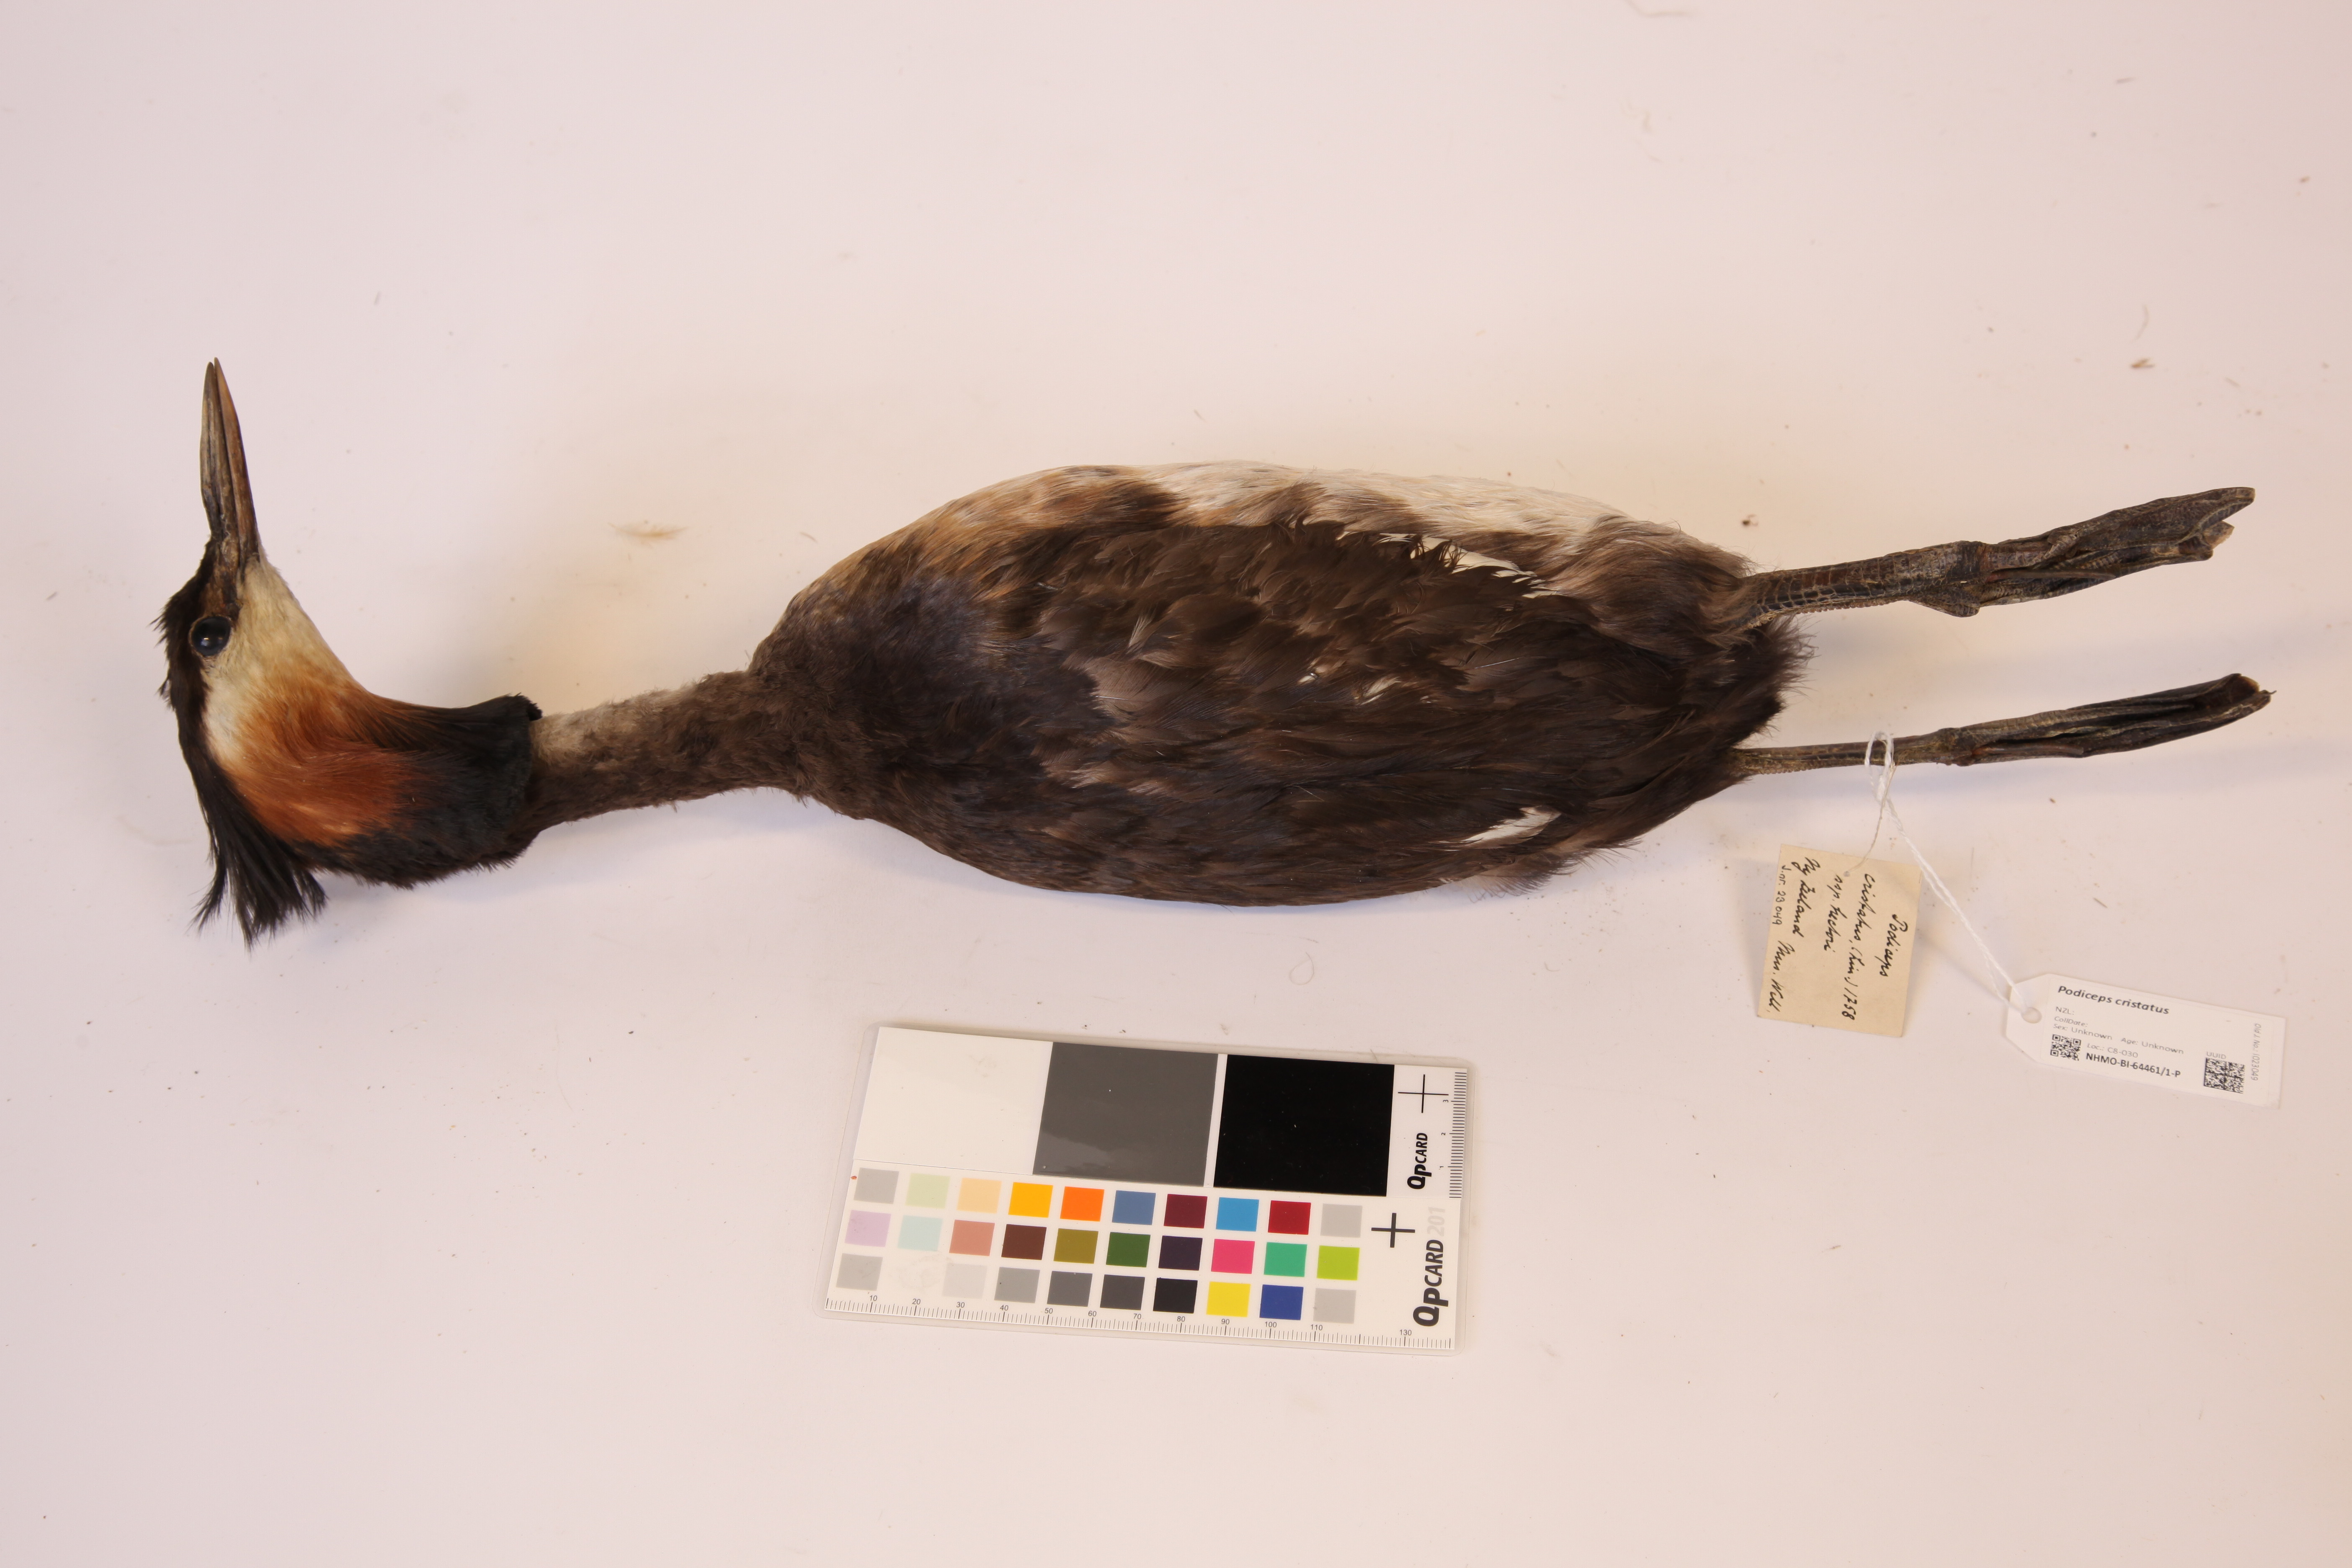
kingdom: Animalia
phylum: Chordata
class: Aves
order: Podicipediformes
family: Podicipedidae
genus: Podiceps
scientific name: Podiceps cristatus
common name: Great crested grebe
